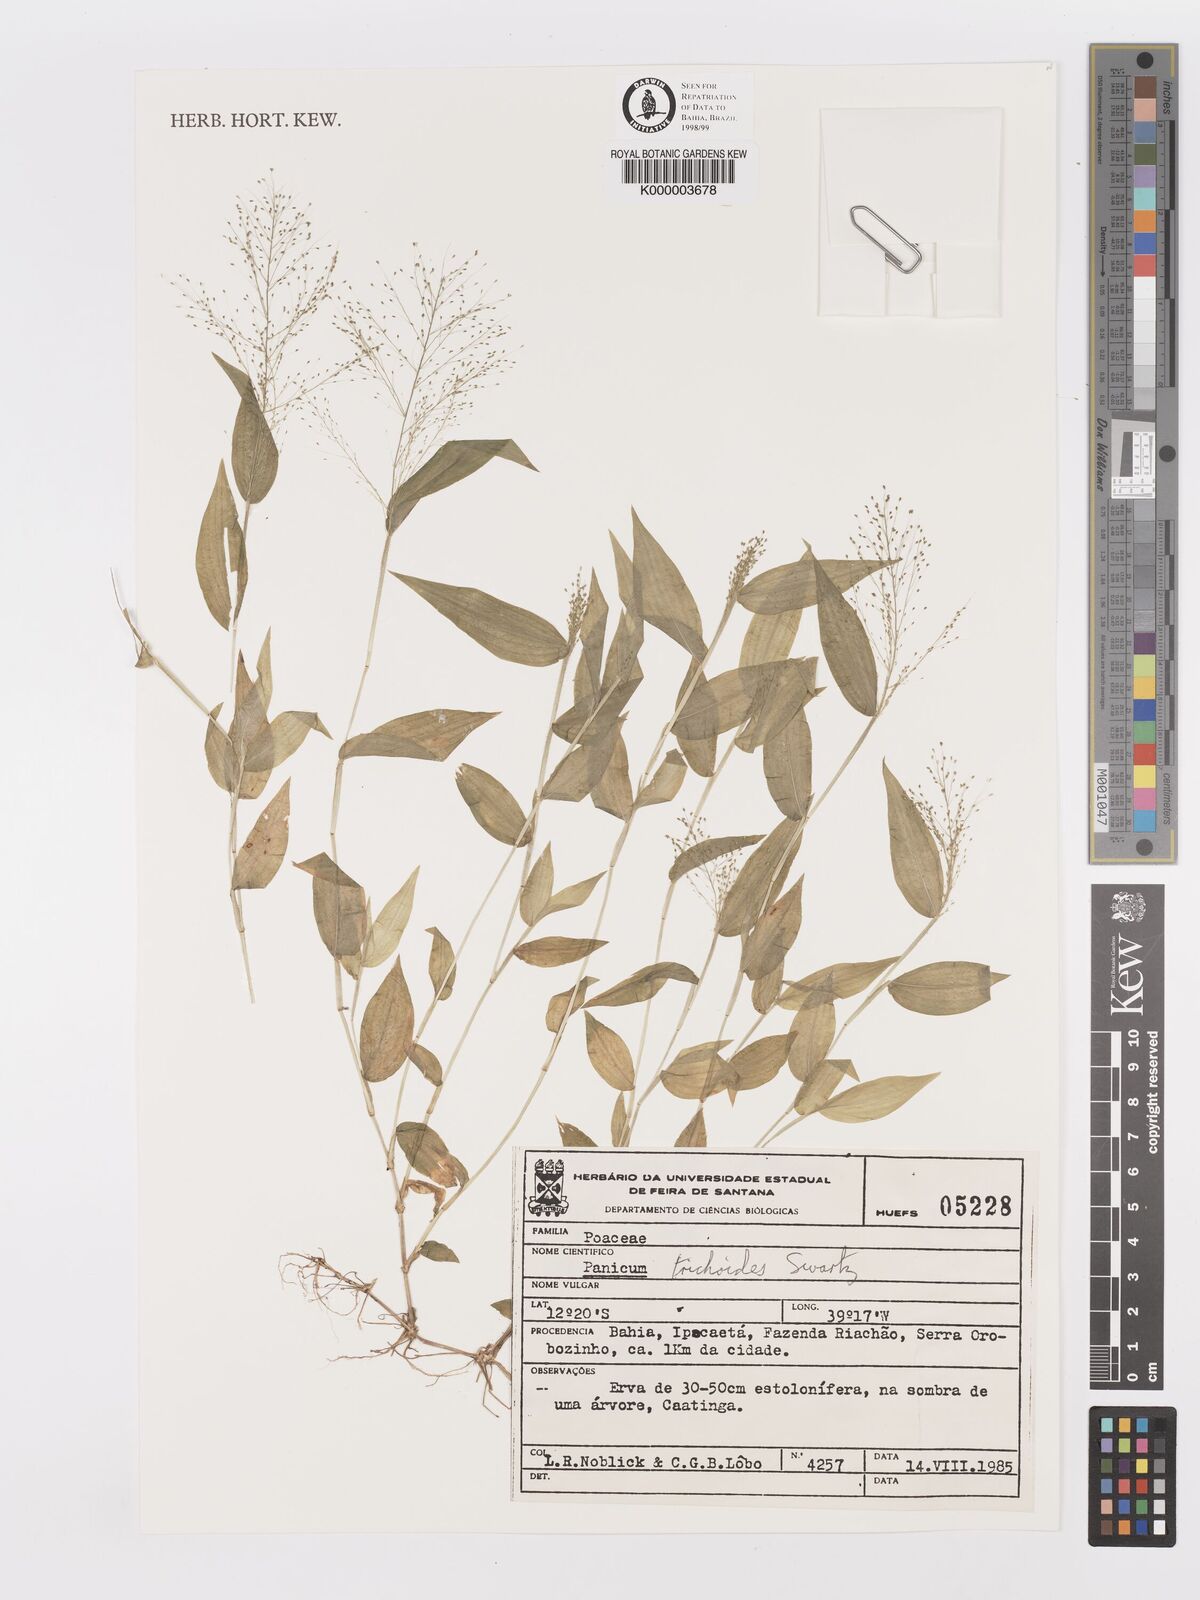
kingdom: Plantae
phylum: Tracheophyta
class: Liliopsida
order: Poales
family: Poaceae
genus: Panicum
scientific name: Panicum
